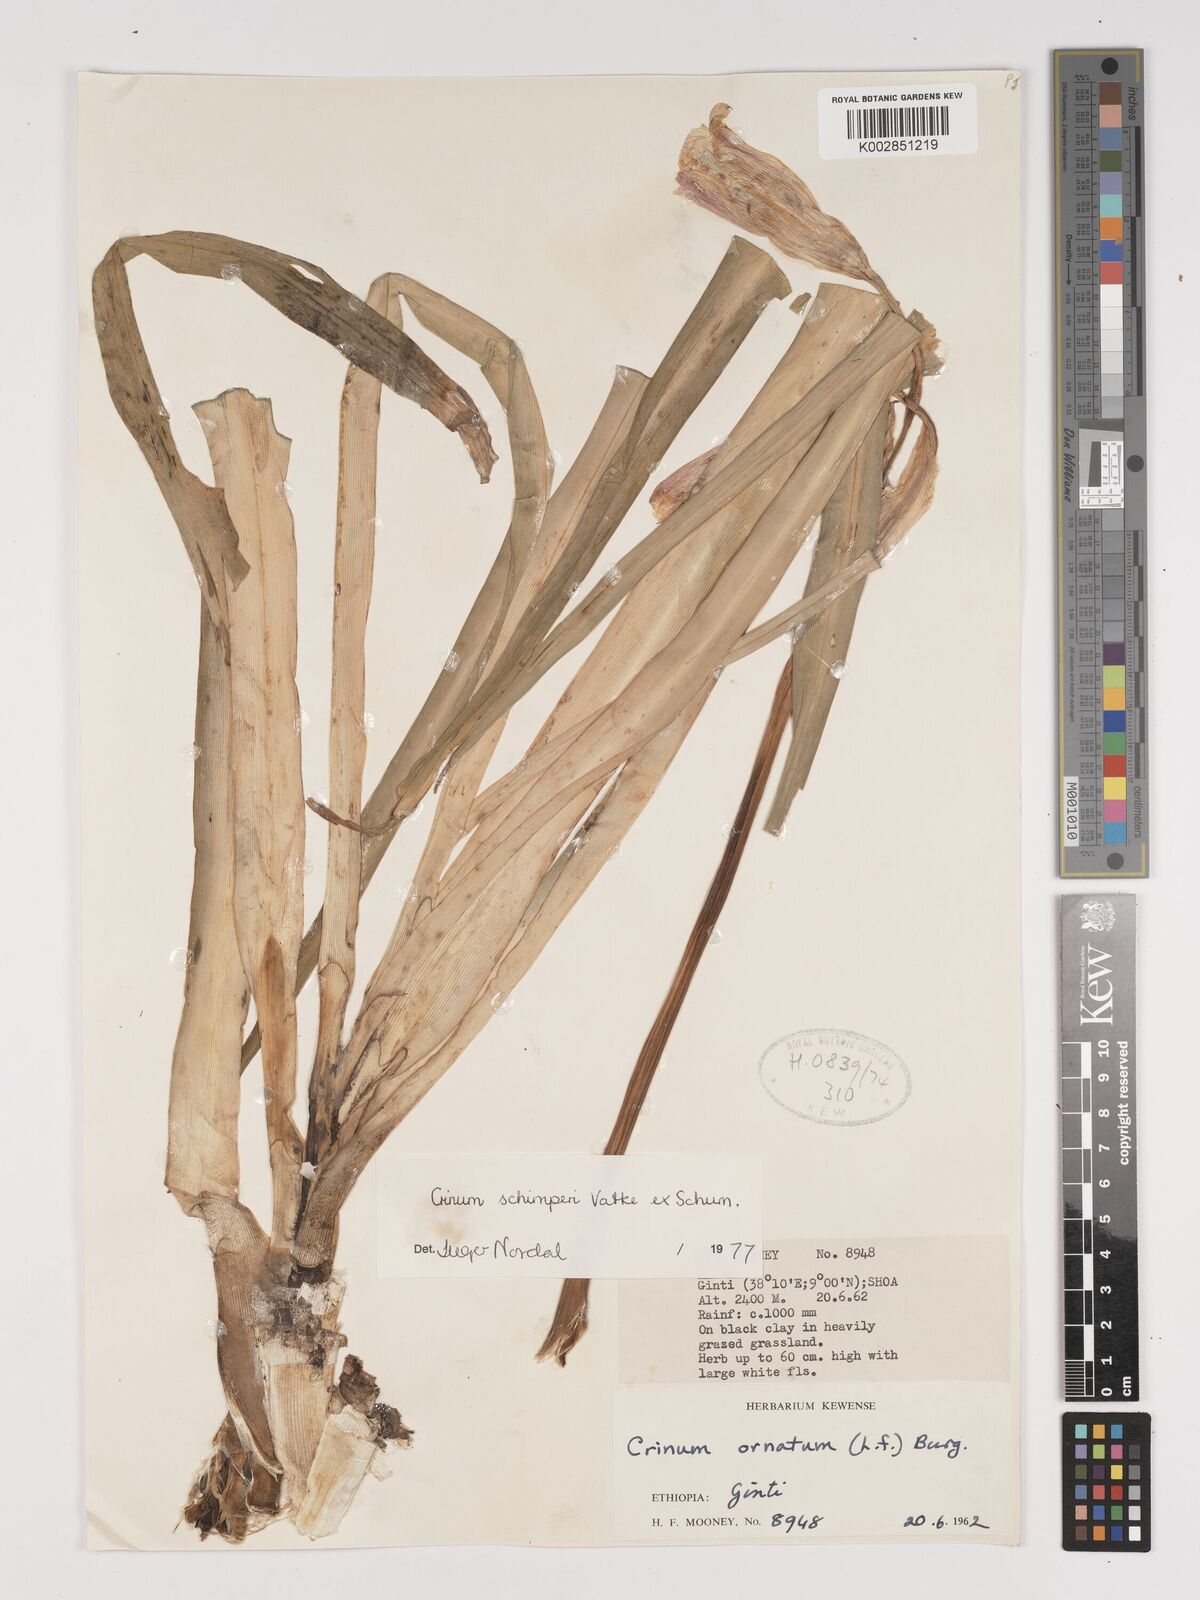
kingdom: Plantae
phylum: Tracheophyta
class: Liliopsida
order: Asparagales
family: Amaryllidaceae
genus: Crinum
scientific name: Crinum abyssinicum
